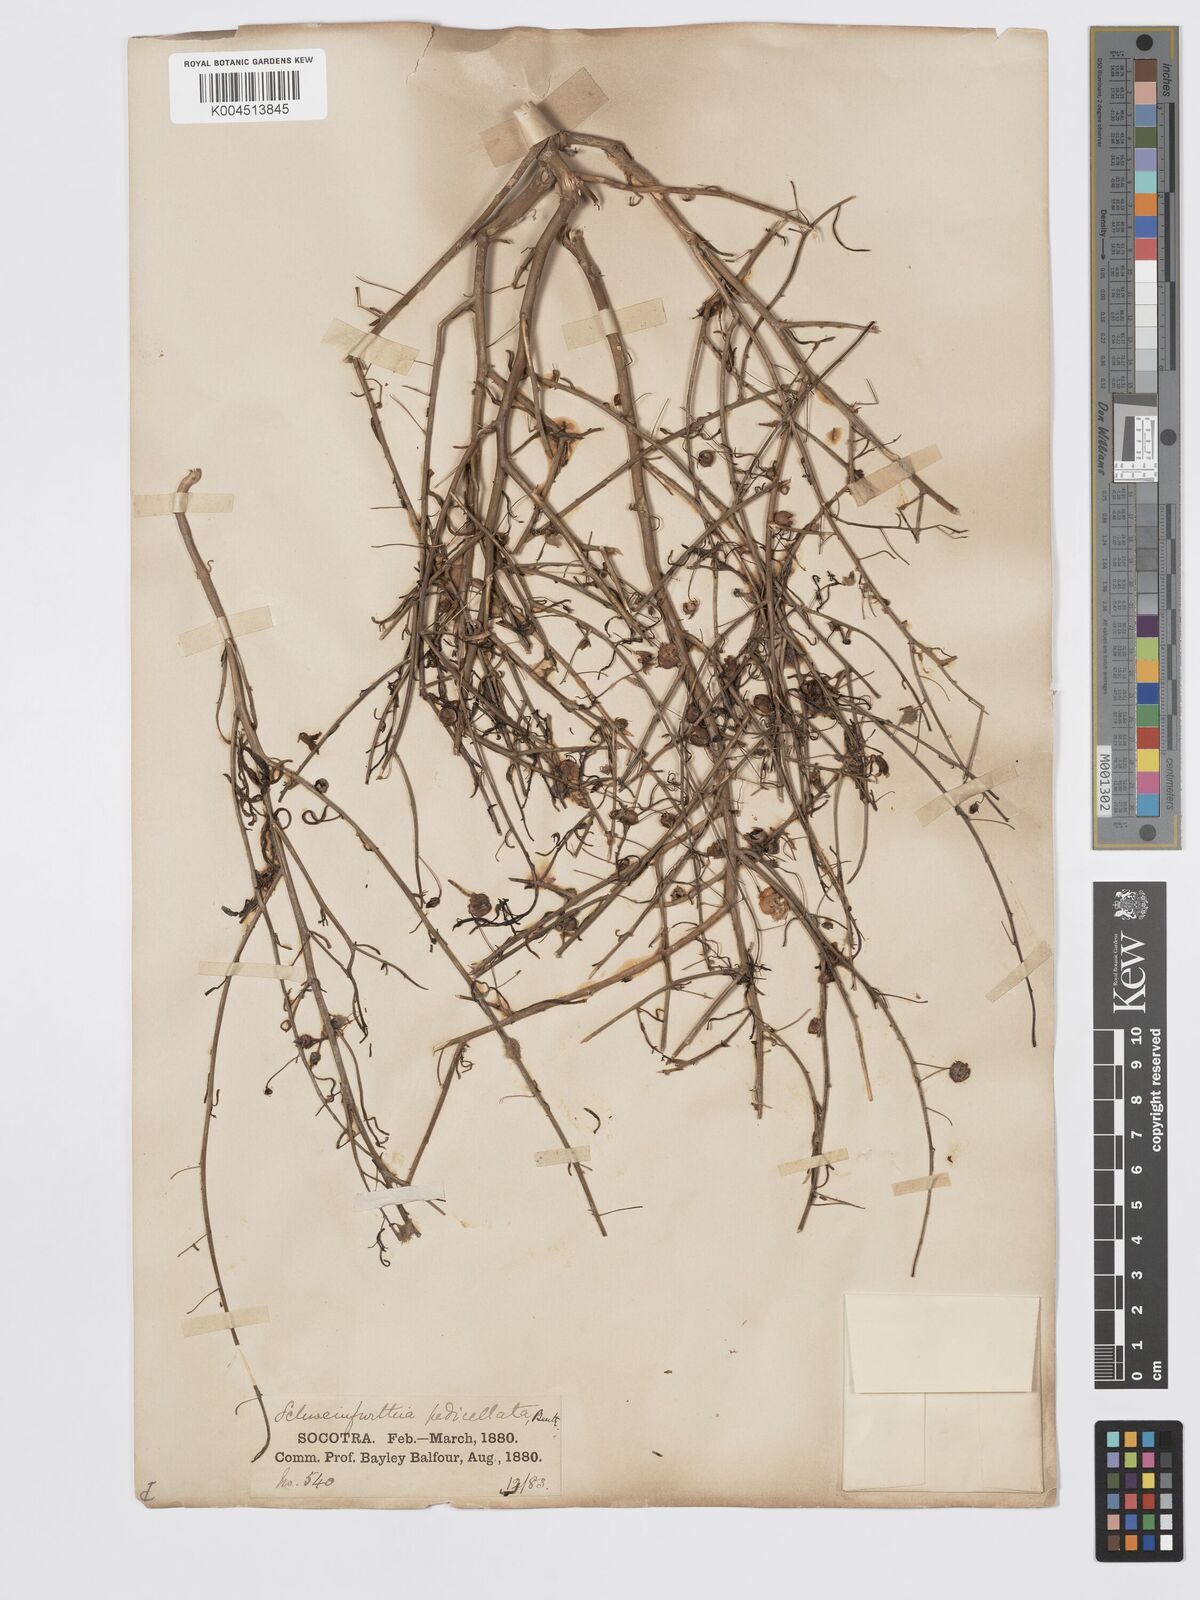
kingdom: Plantae
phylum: Tracheophyta
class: Magnoliopsida
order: Lamiales
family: Plantaginaceae
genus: Schweinfurthia
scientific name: Schweinfurthia pedicellata
